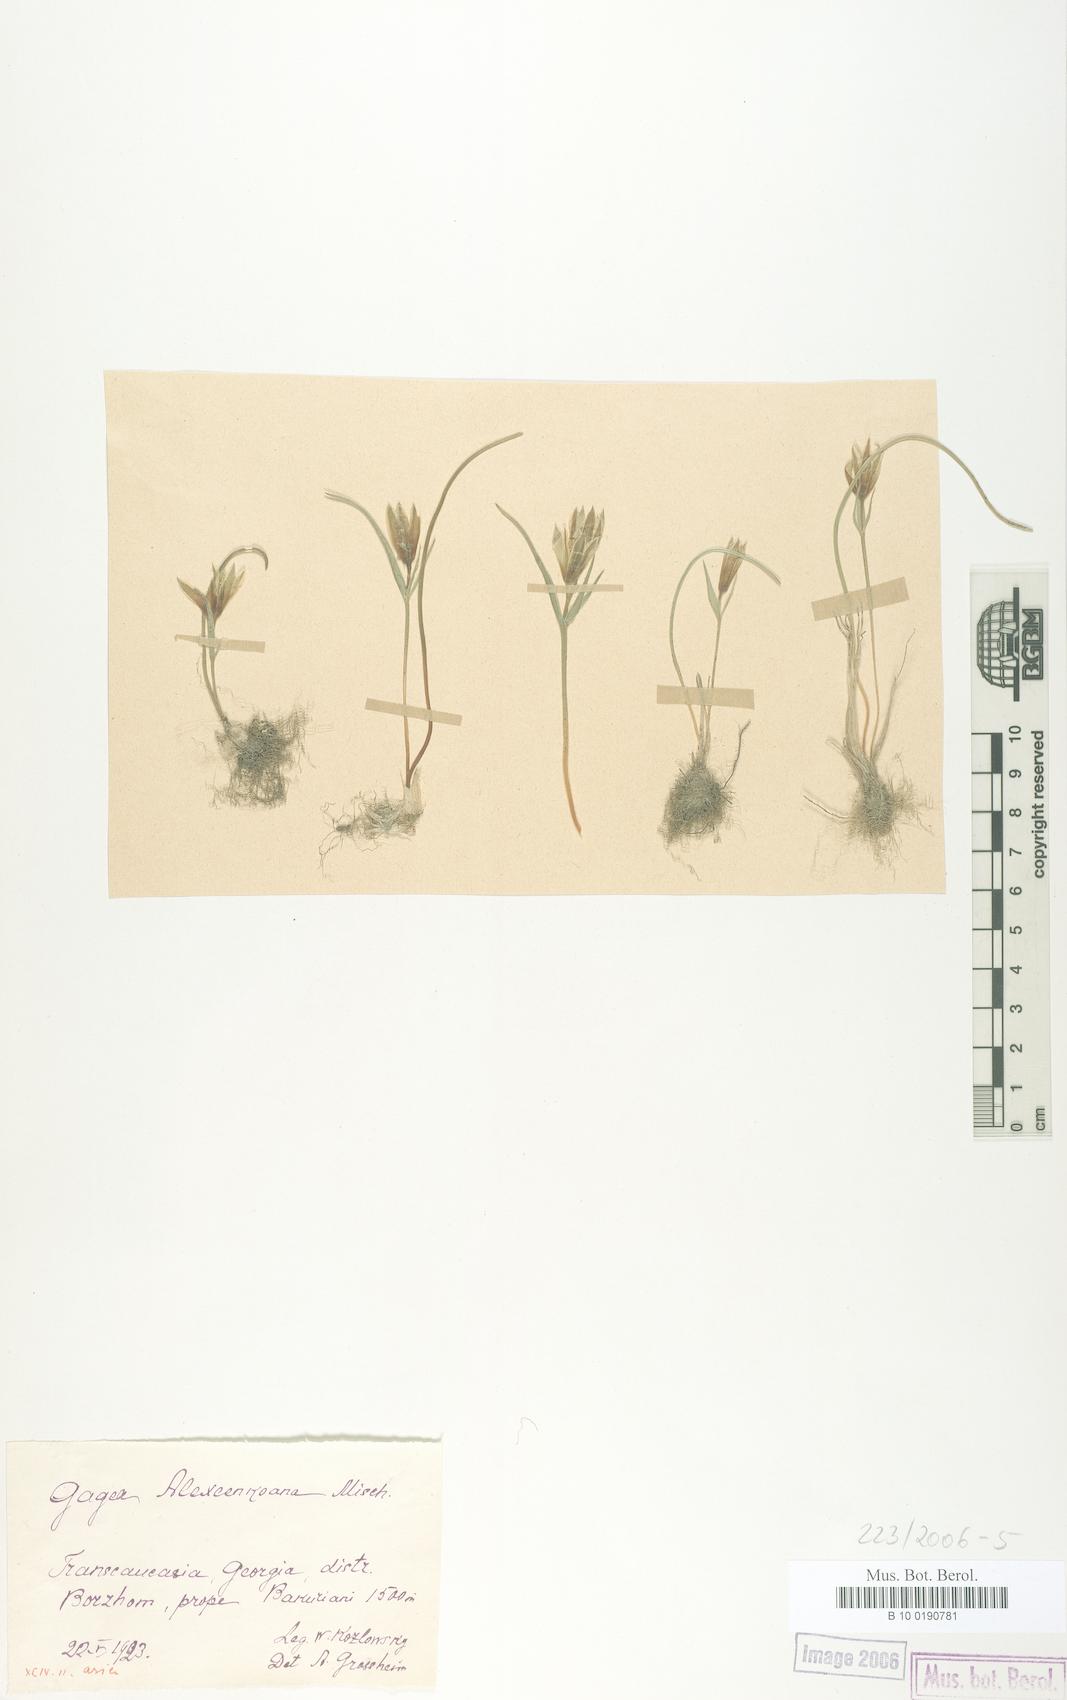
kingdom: Plantae
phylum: Tracheophyta
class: Liliopsida
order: Liliales
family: Liliaceae
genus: Gagea
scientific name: Gagea alexeenkoana
